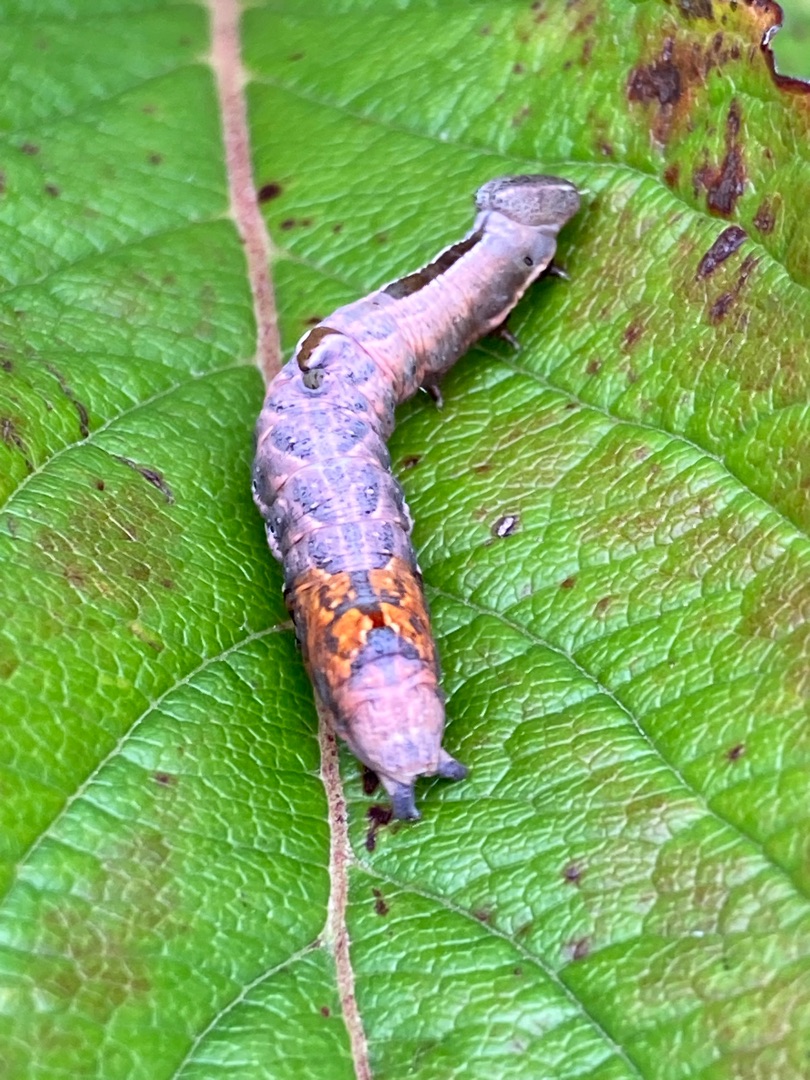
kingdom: Animalia
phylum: Arthropoda
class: Insecta
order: Lepidoptera
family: Notodontidae
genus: Notodonta
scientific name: Notodonta ziczac
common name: Zigzagspinder
